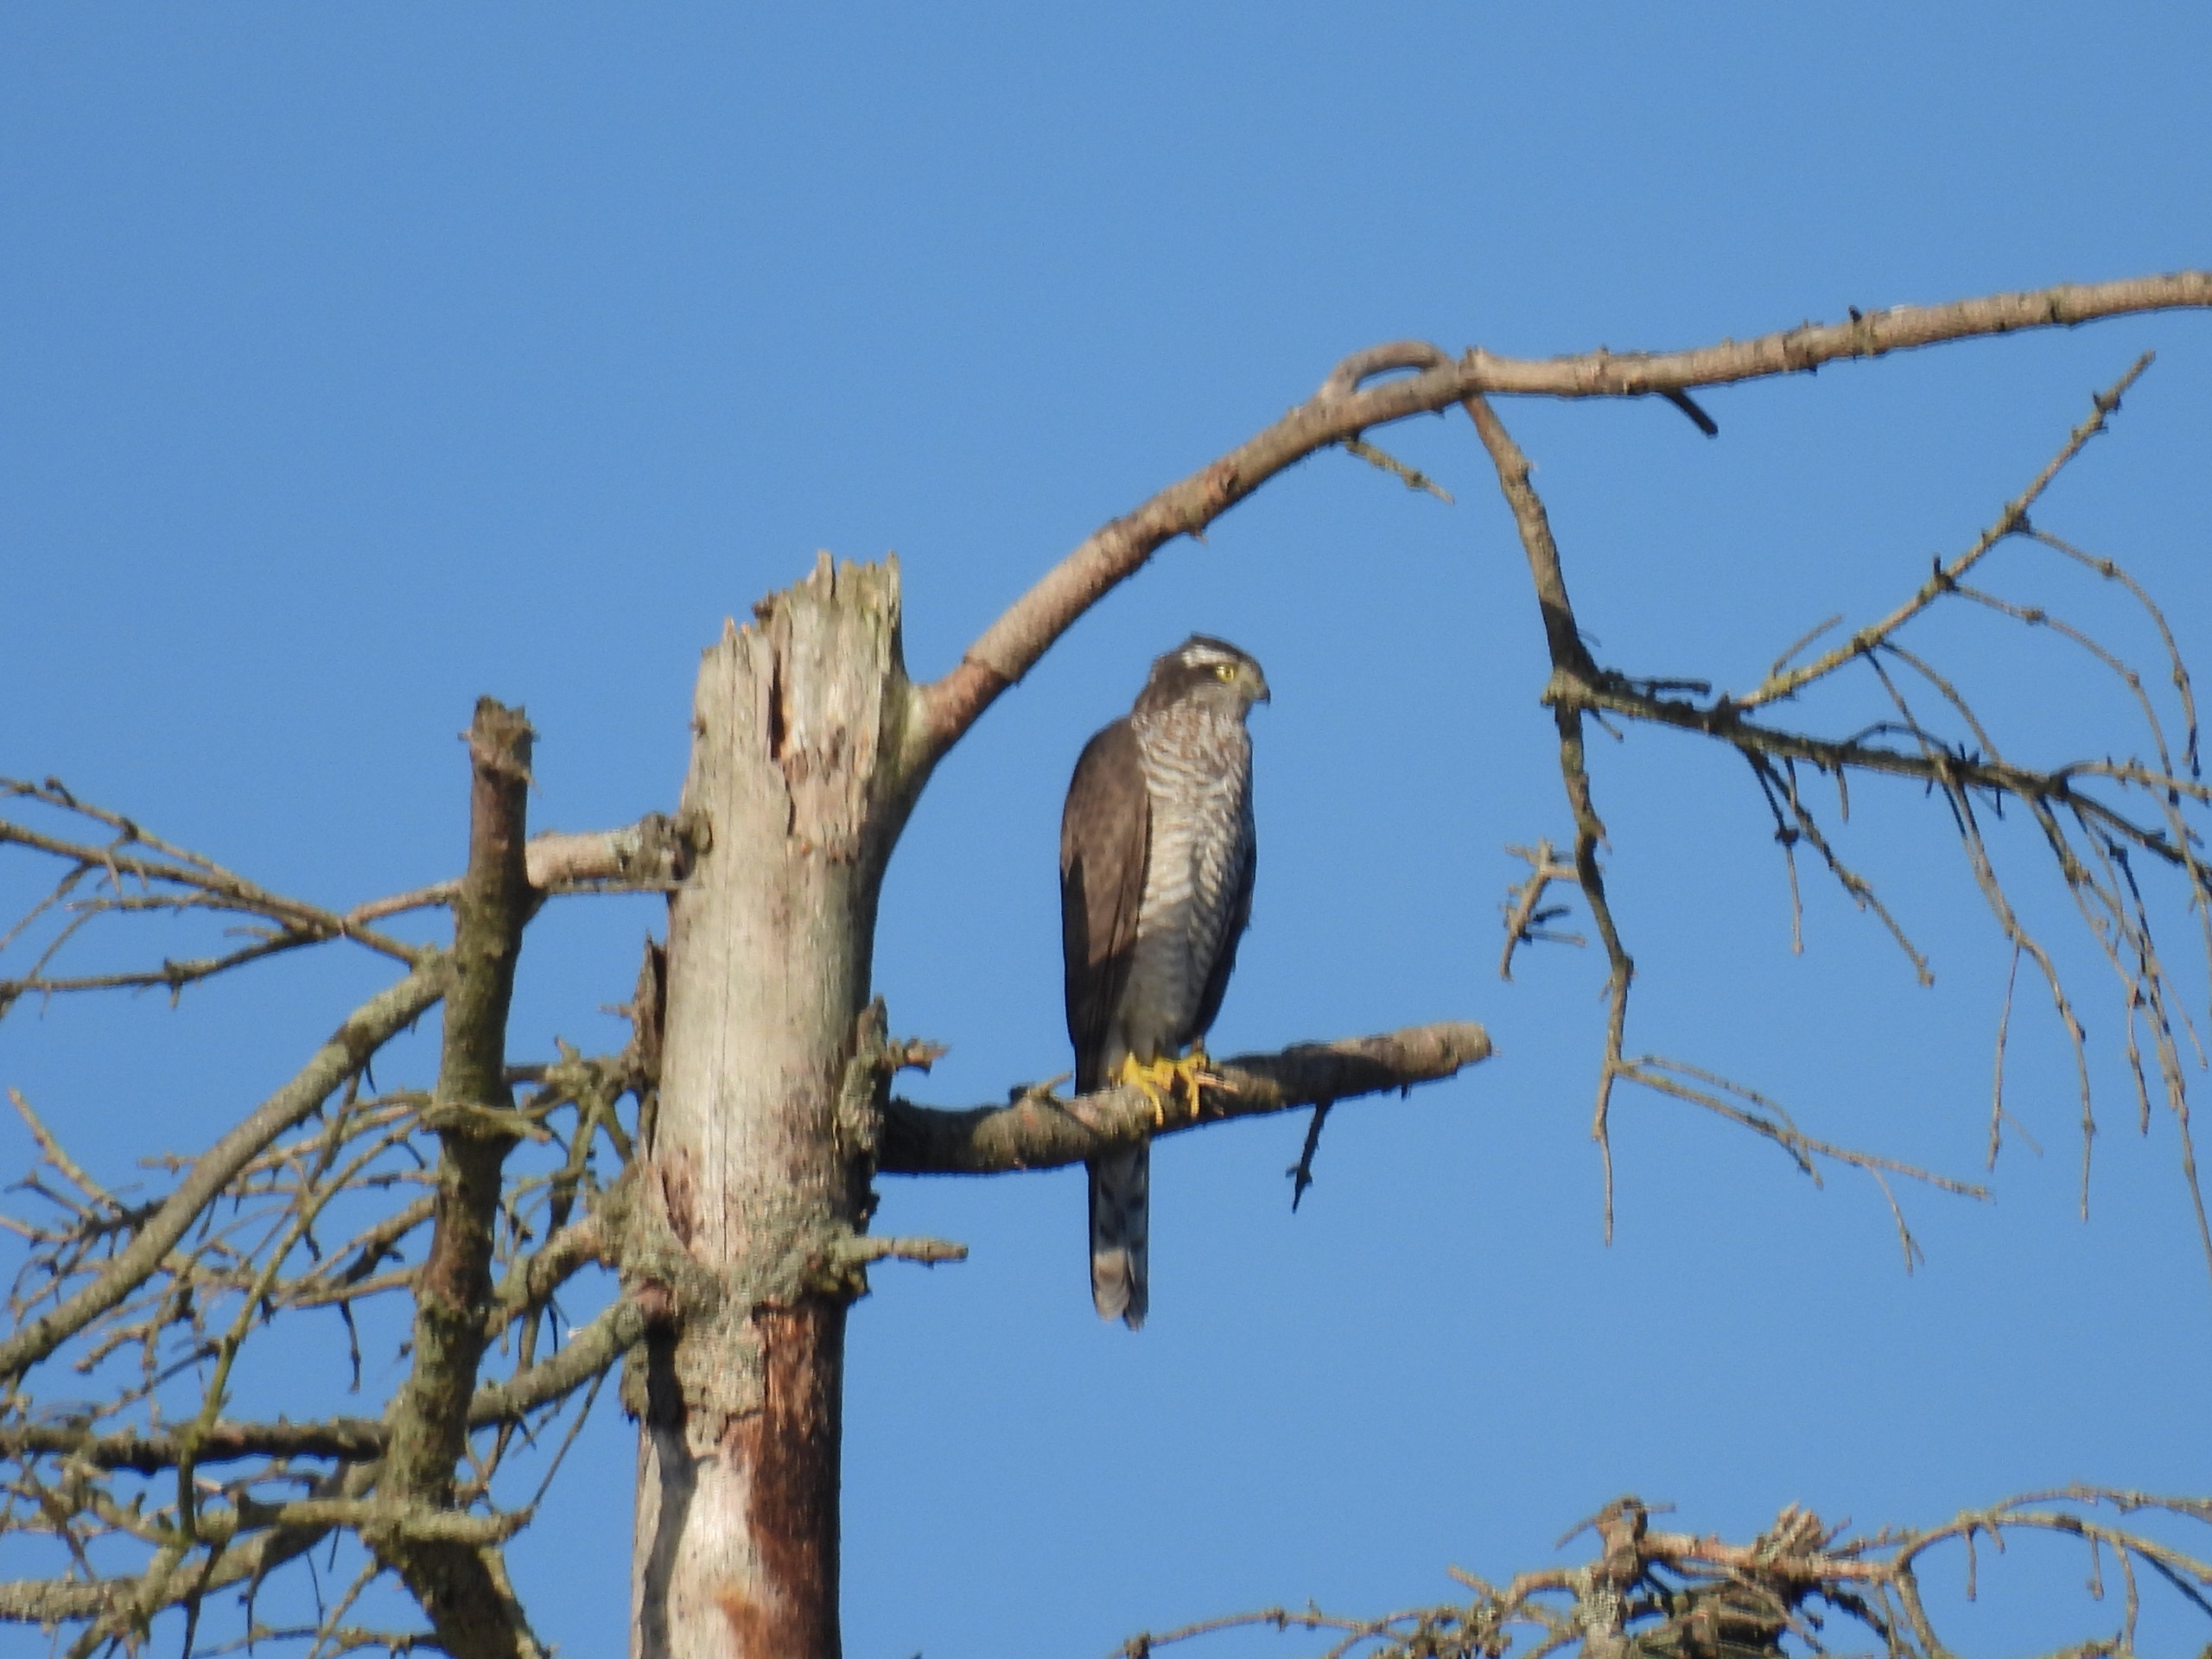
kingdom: Animalia
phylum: Chordata
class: Aves
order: Accipitriformes
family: Accipitridae
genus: Accipiter
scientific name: Accipiter nisus
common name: Spurvehøg
